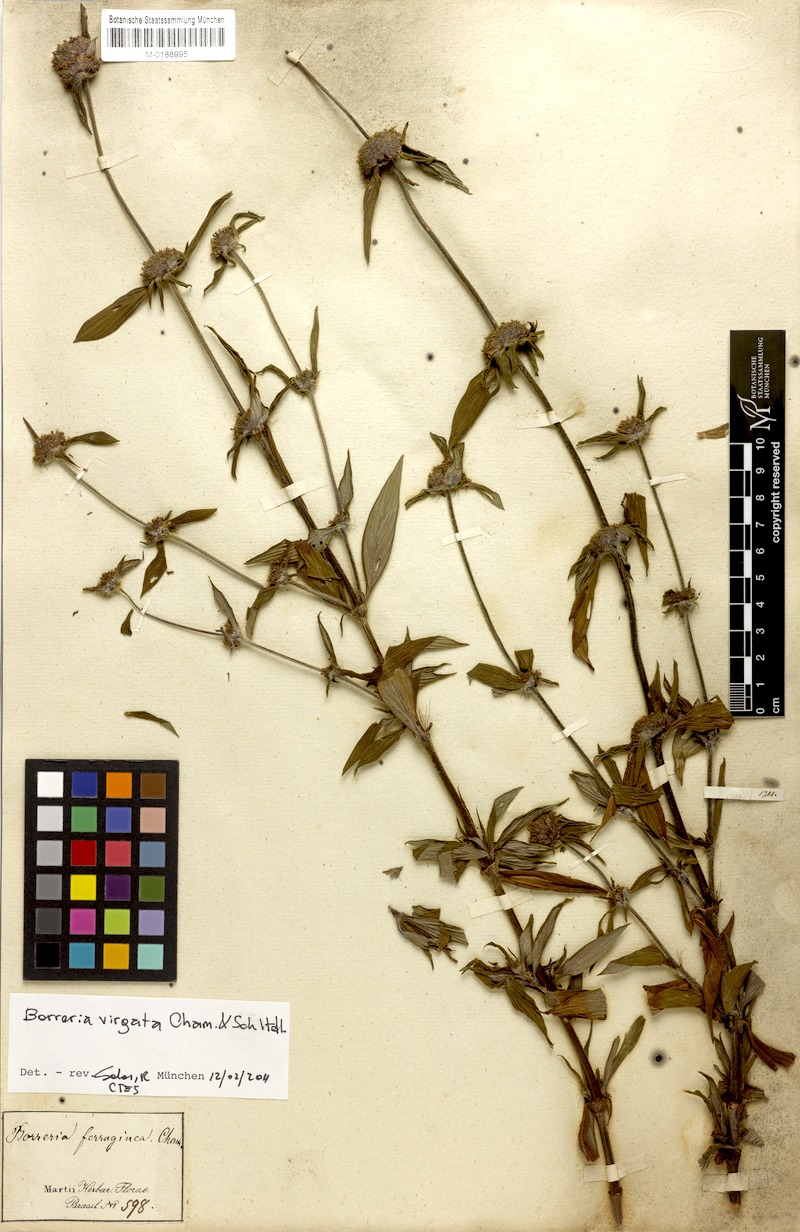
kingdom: Plantae
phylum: Tracheophyta
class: Magnoliopsida
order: Gentianales
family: Rubiaceae
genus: Spermacoce
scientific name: Spermacoce ocymifolia
